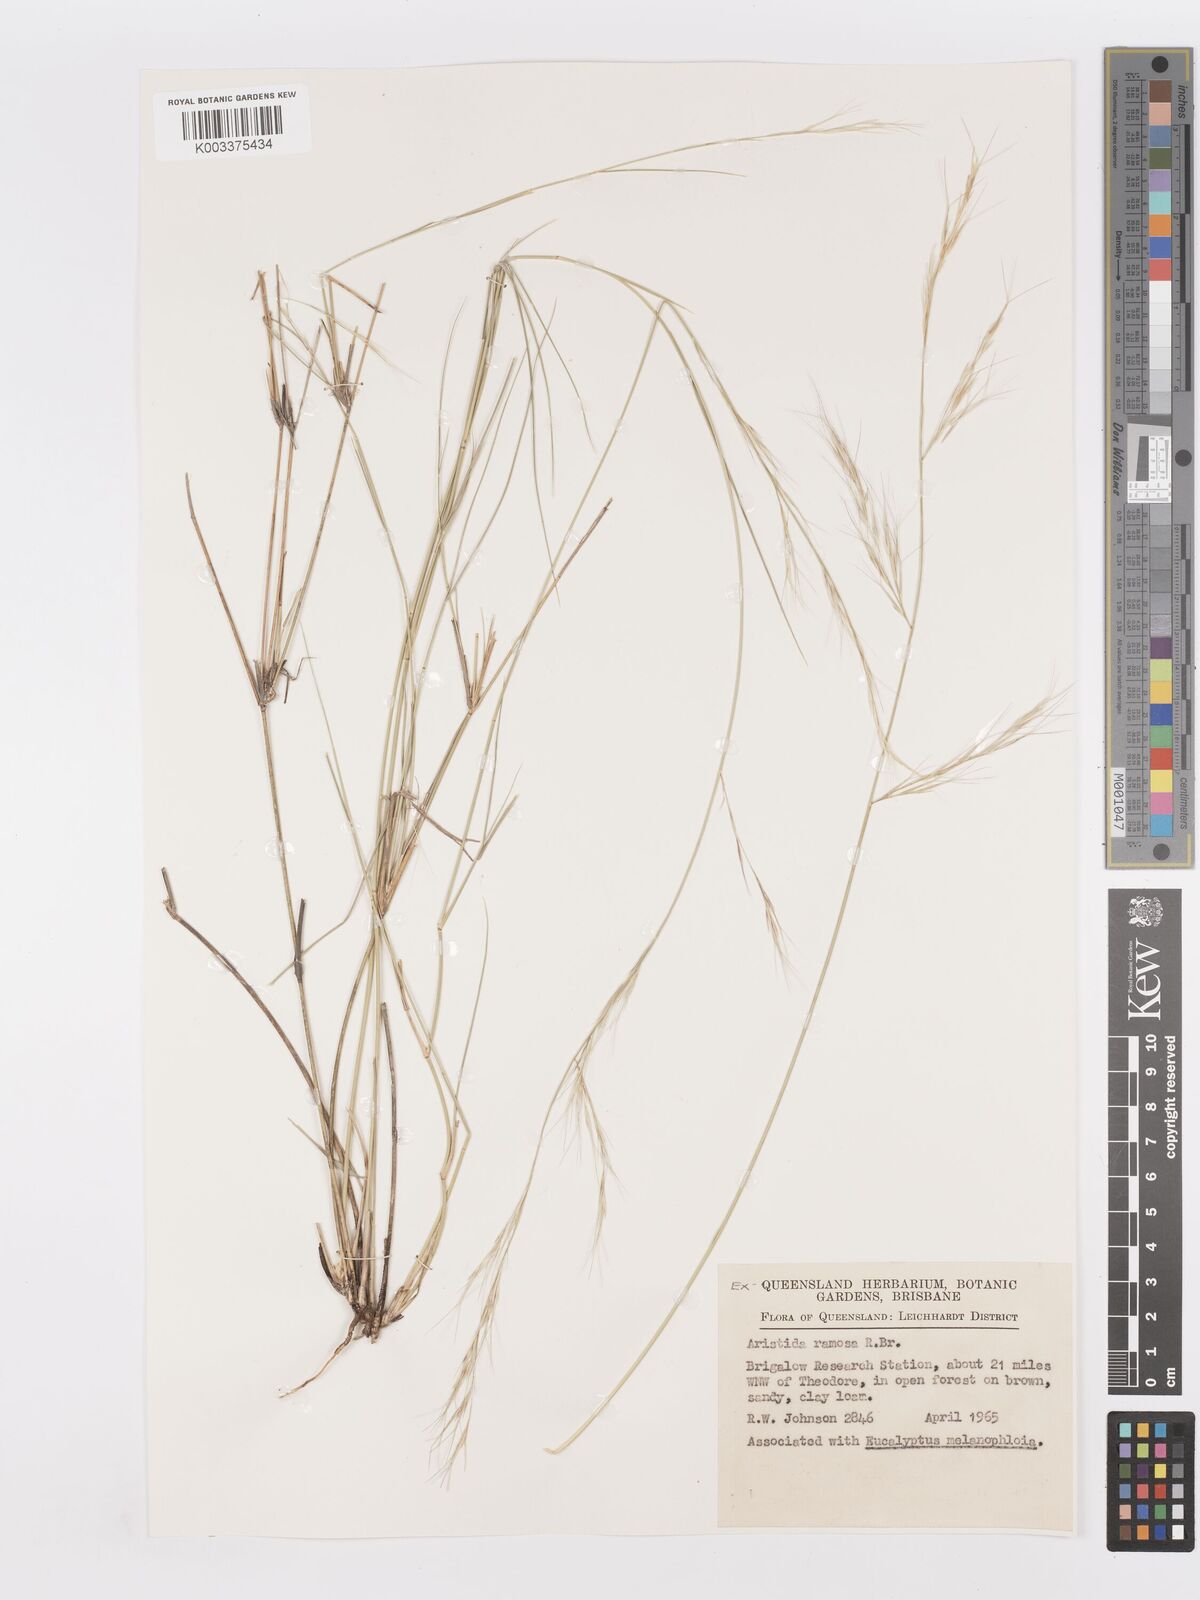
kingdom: Plantae
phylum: Tracheophyta
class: Liliopsida
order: Poales
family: Poaceae
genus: Aristida
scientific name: Aristida ramosa
